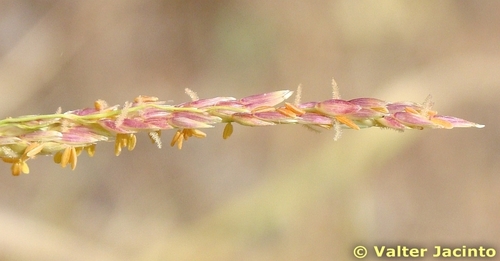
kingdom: Plantae
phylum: Tracheophyta
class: Liliopsida
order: Poales
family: Poaceae
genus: Sorghum
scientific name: Sorghum halepense
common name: Johnson-grass
